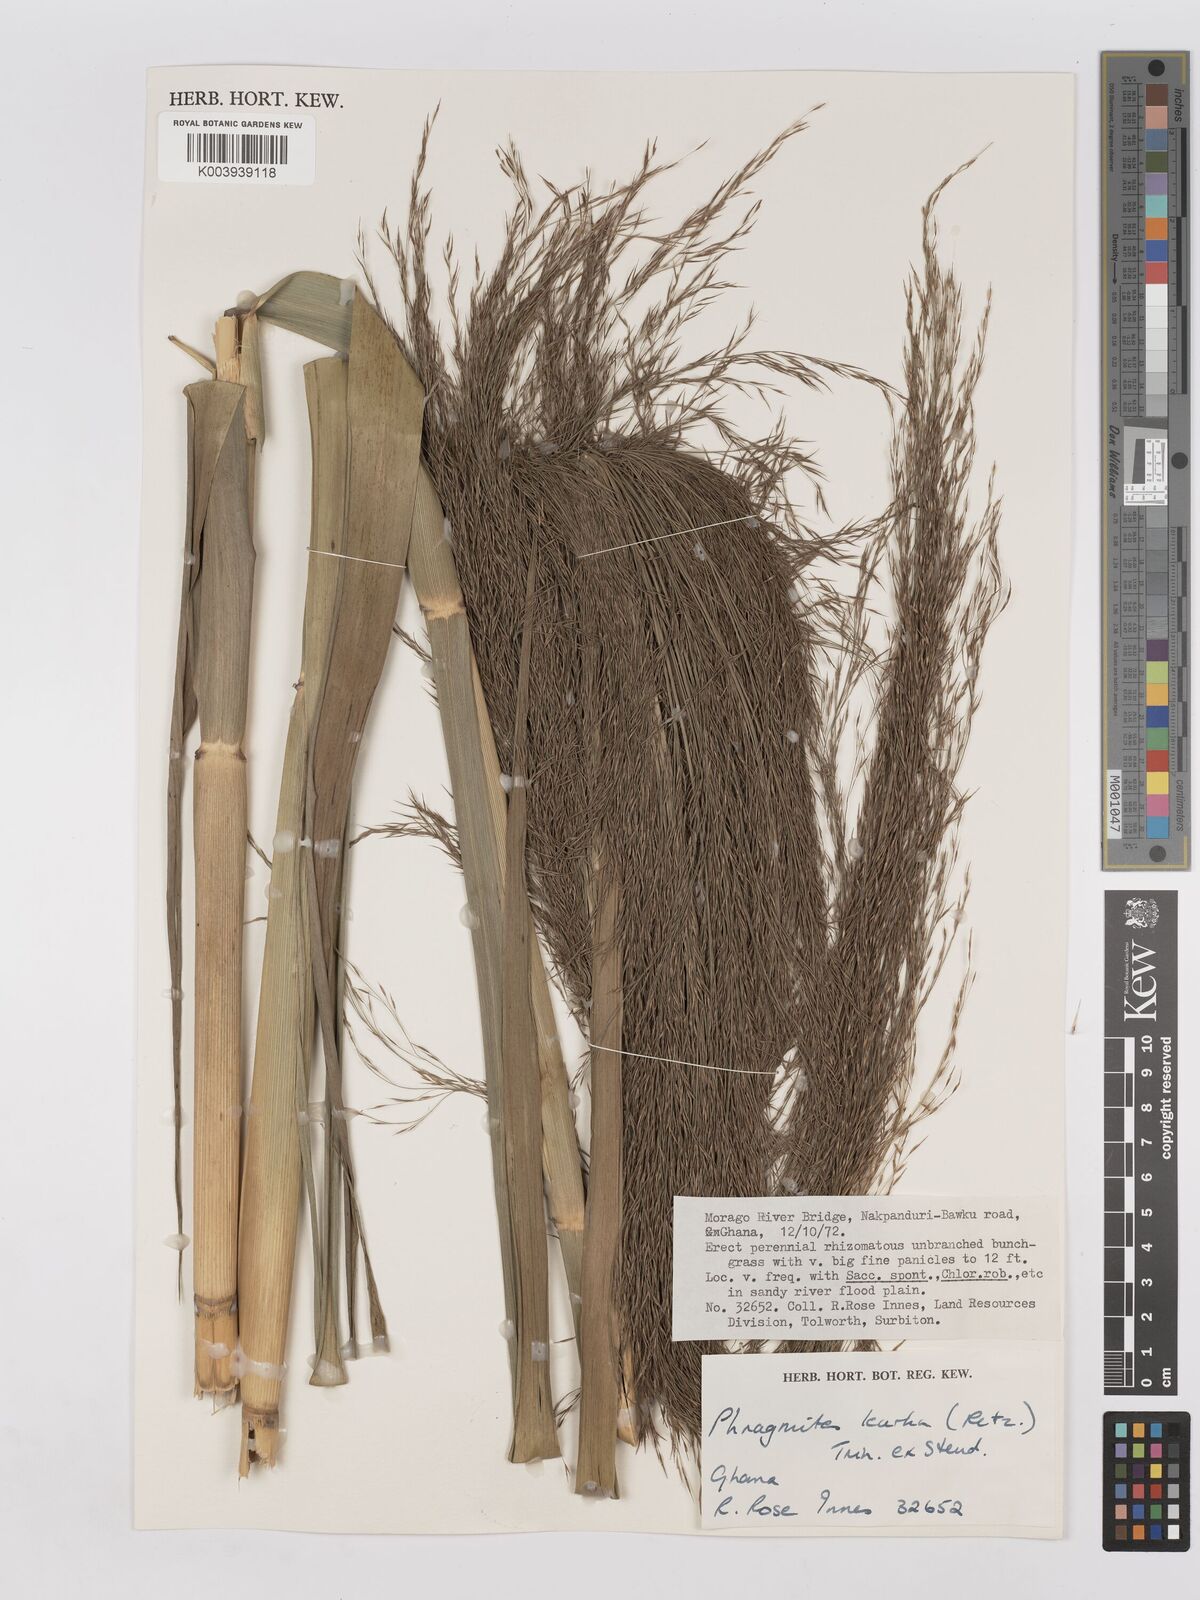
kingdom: Plantae
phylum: Tracheophyta
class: Liliopsida
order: Poales
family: Poaceae
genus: Phragmites
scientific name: Phragmites karka
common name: Tropical reed
